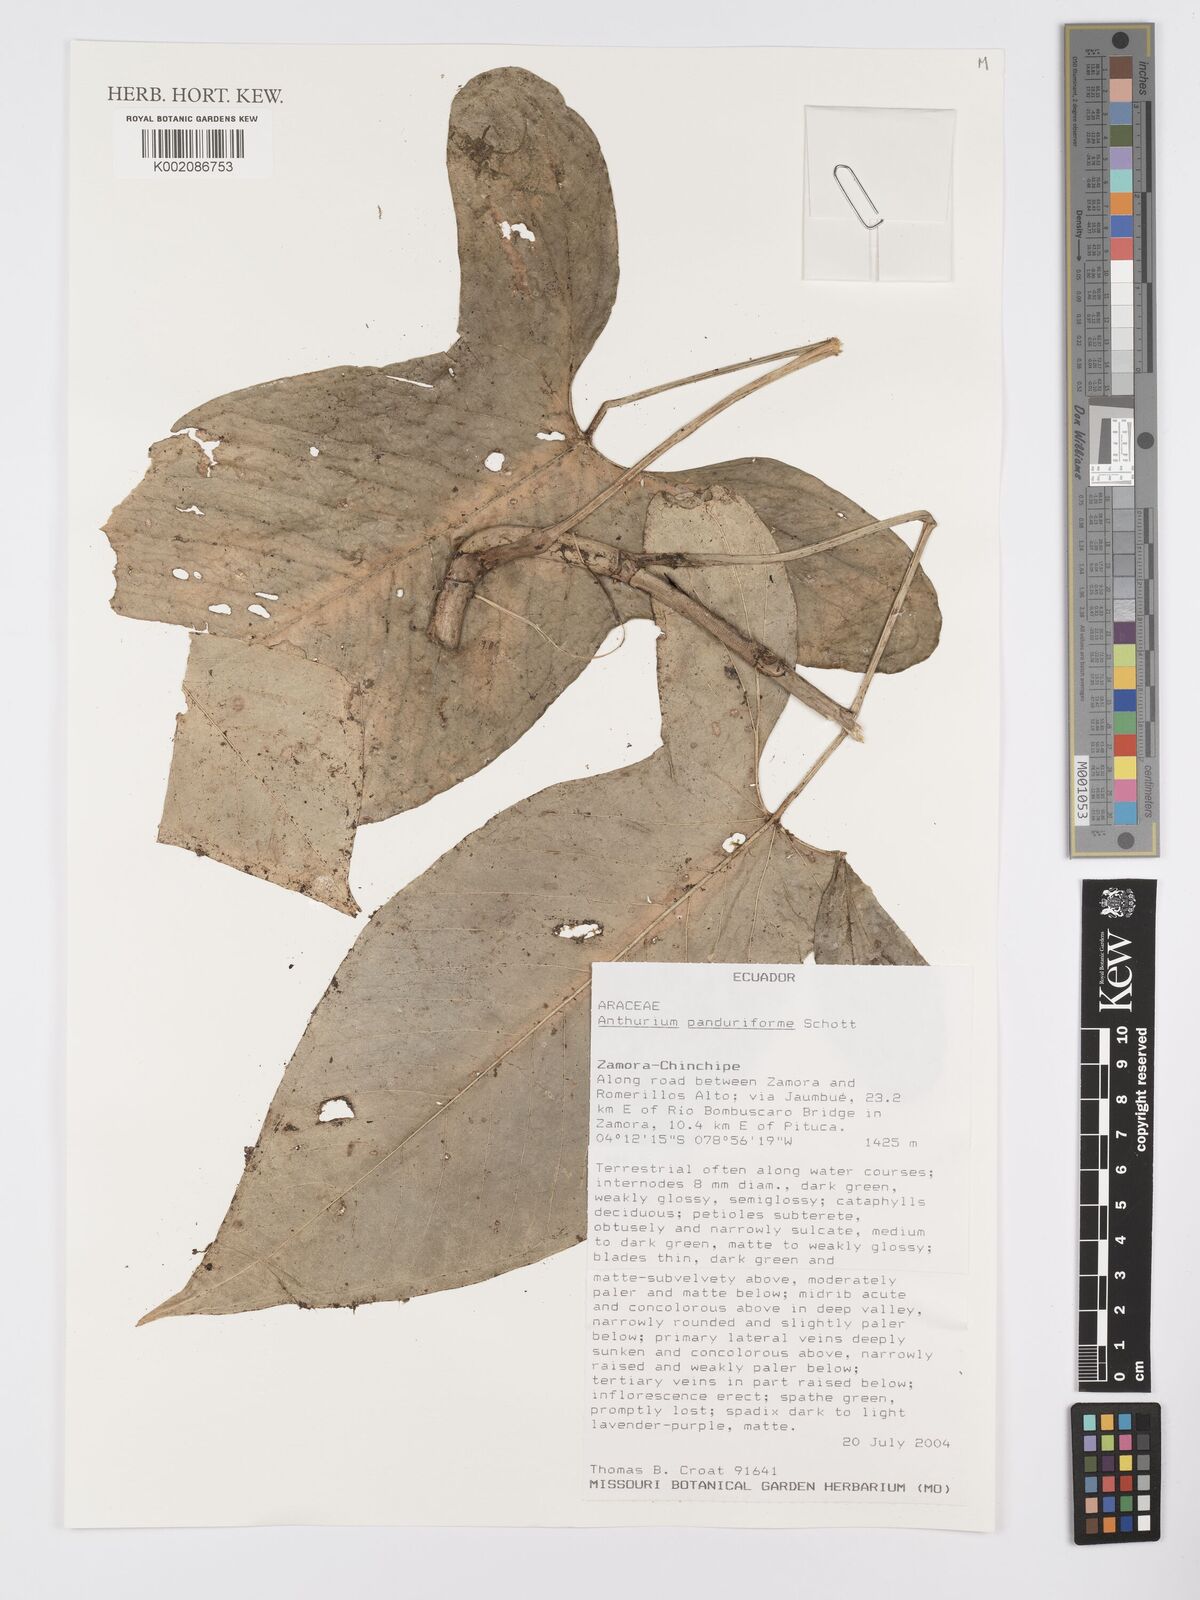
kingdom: Plantae
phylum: Tracheophyta
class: Liliopsida
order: Alismatales
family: Araceae
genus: Anthurium
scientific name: Anthurium panduriforme
